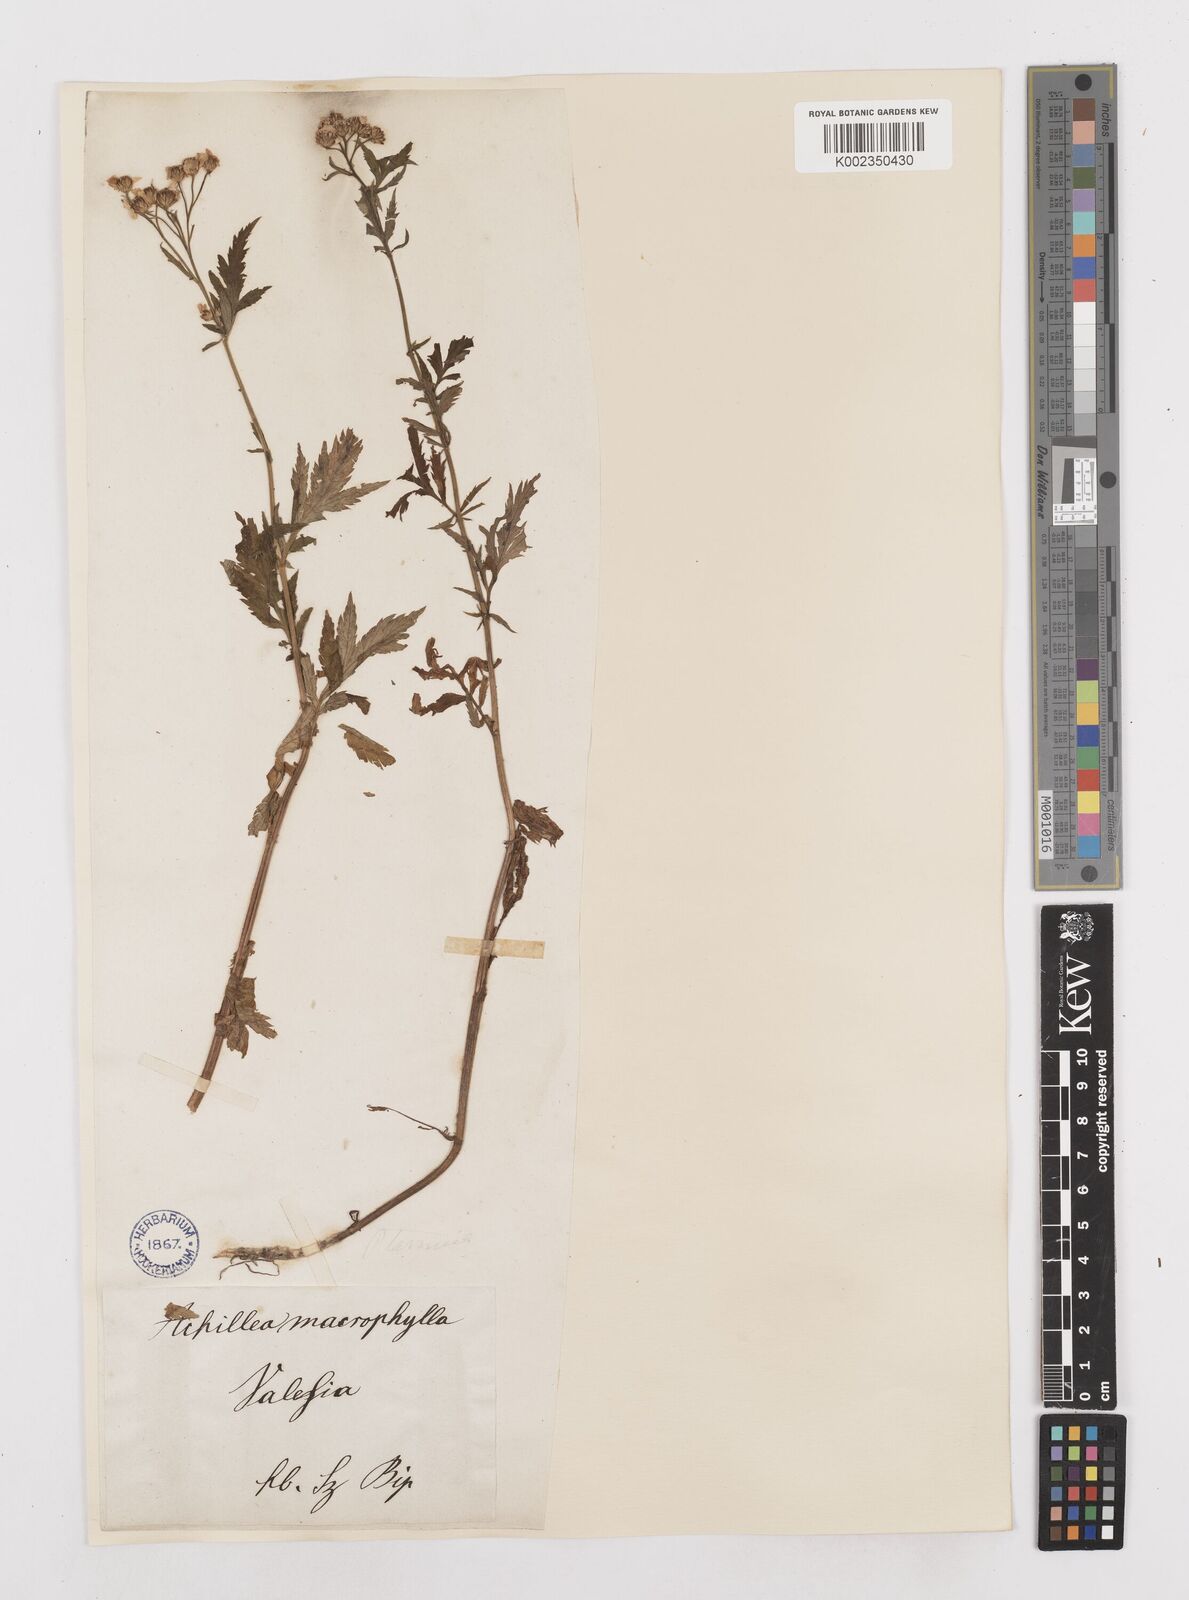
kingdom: Plantae
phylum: Tracheophyta
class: Magnoliopsida
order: Asterales
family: Asteraceae
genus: Achillea
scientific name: Achillea macrophylla
